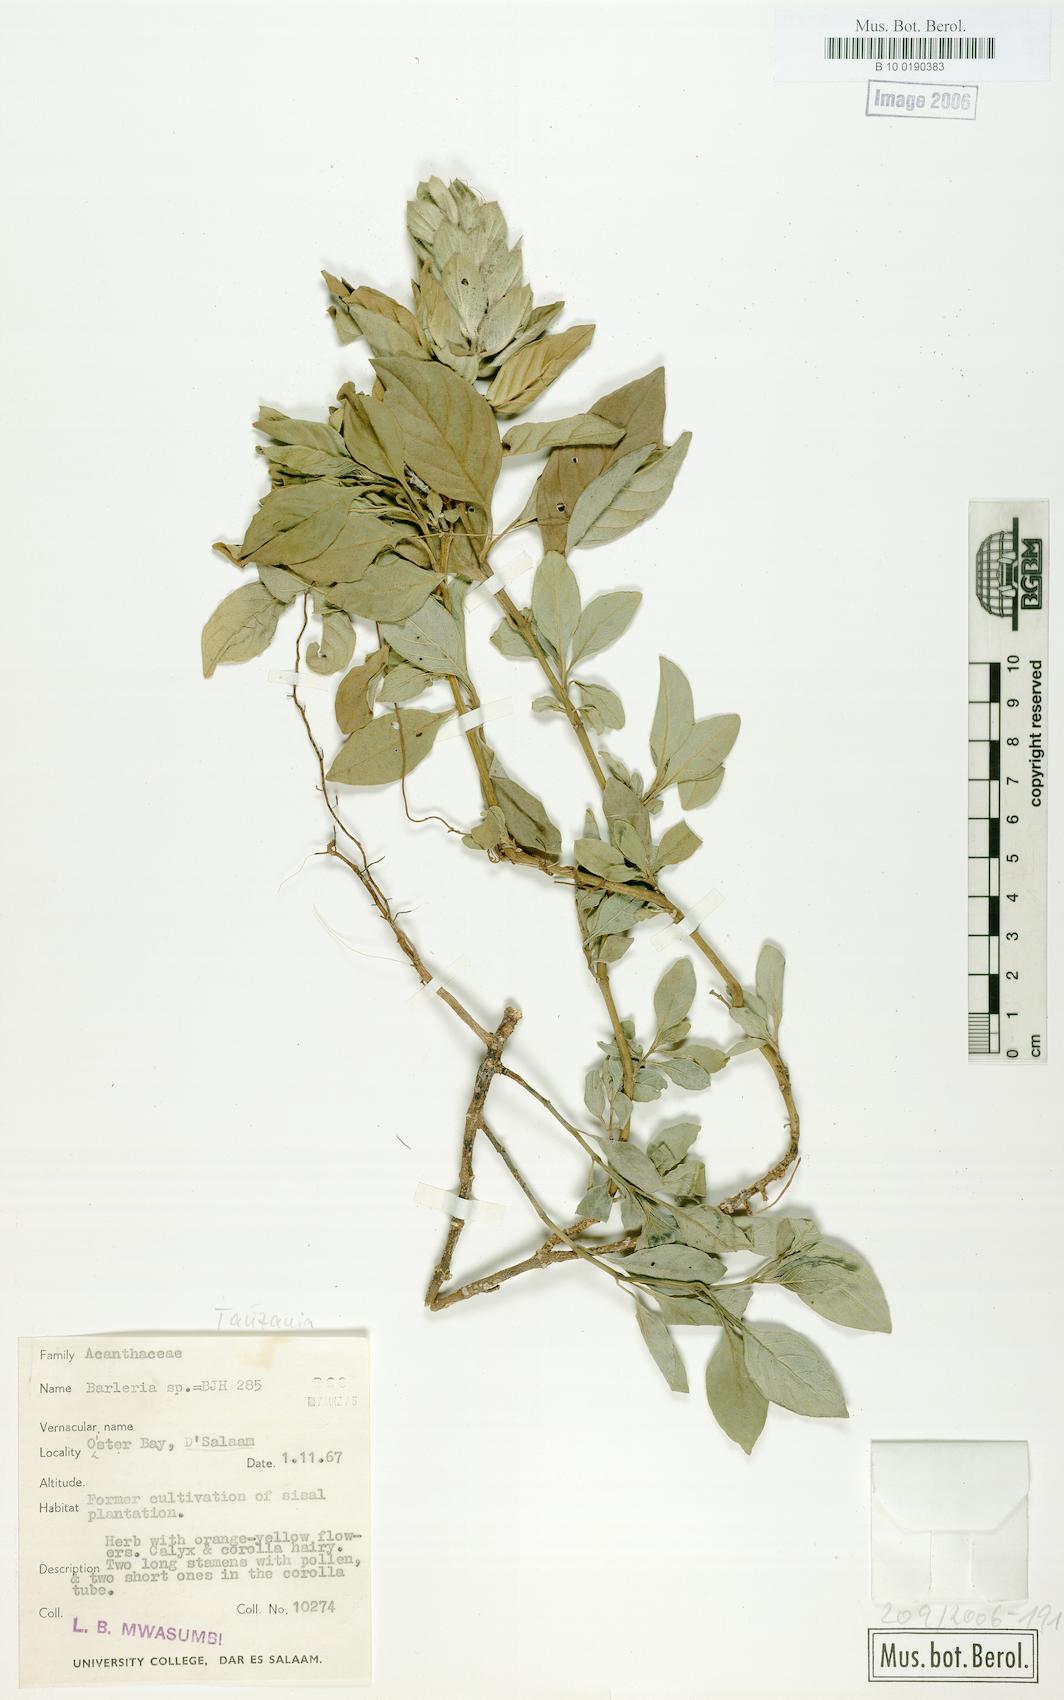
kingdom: Plantae
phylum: Tracheophyta
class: Magnoliopsida
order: Lamiales
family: Acanthaceae
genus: Barleria
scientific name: Barleria
